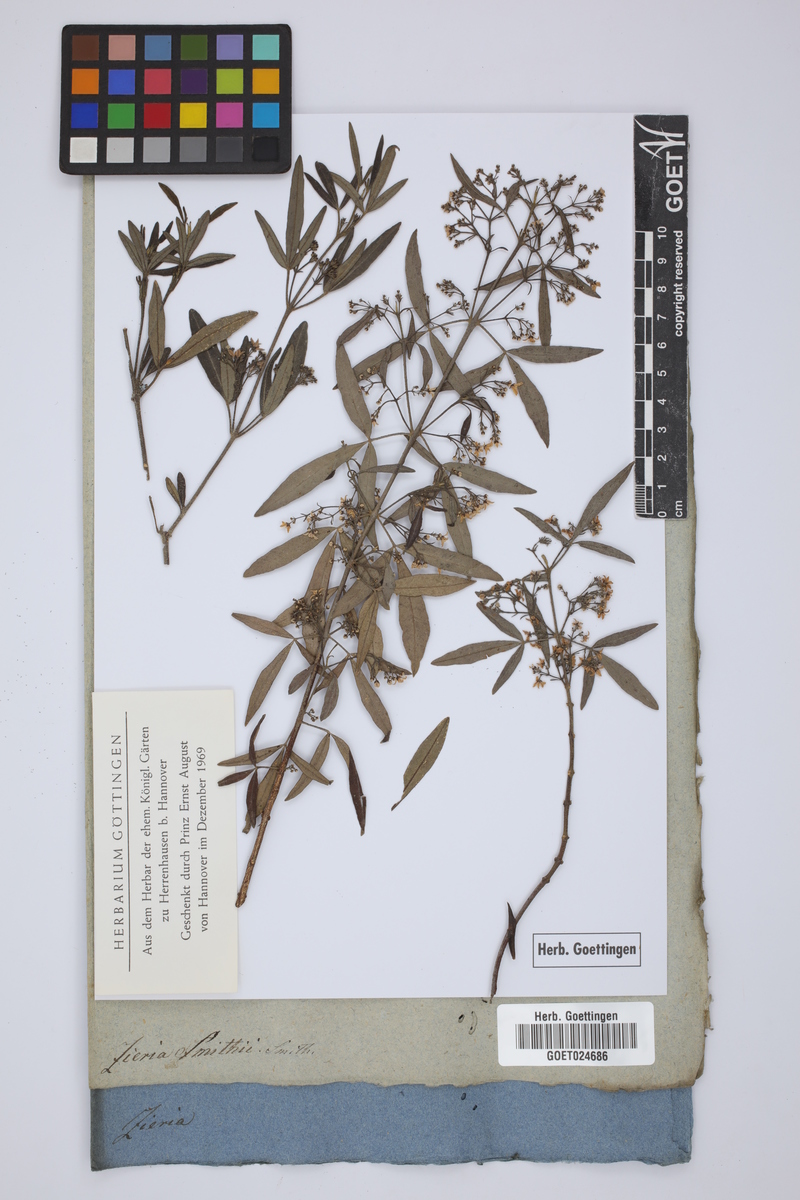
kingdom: Plantae
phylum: Tracheophyta
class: Magnoliopsida
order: Sapindales
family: Rutaceae
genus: Zieria
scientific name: Zieria smithii
